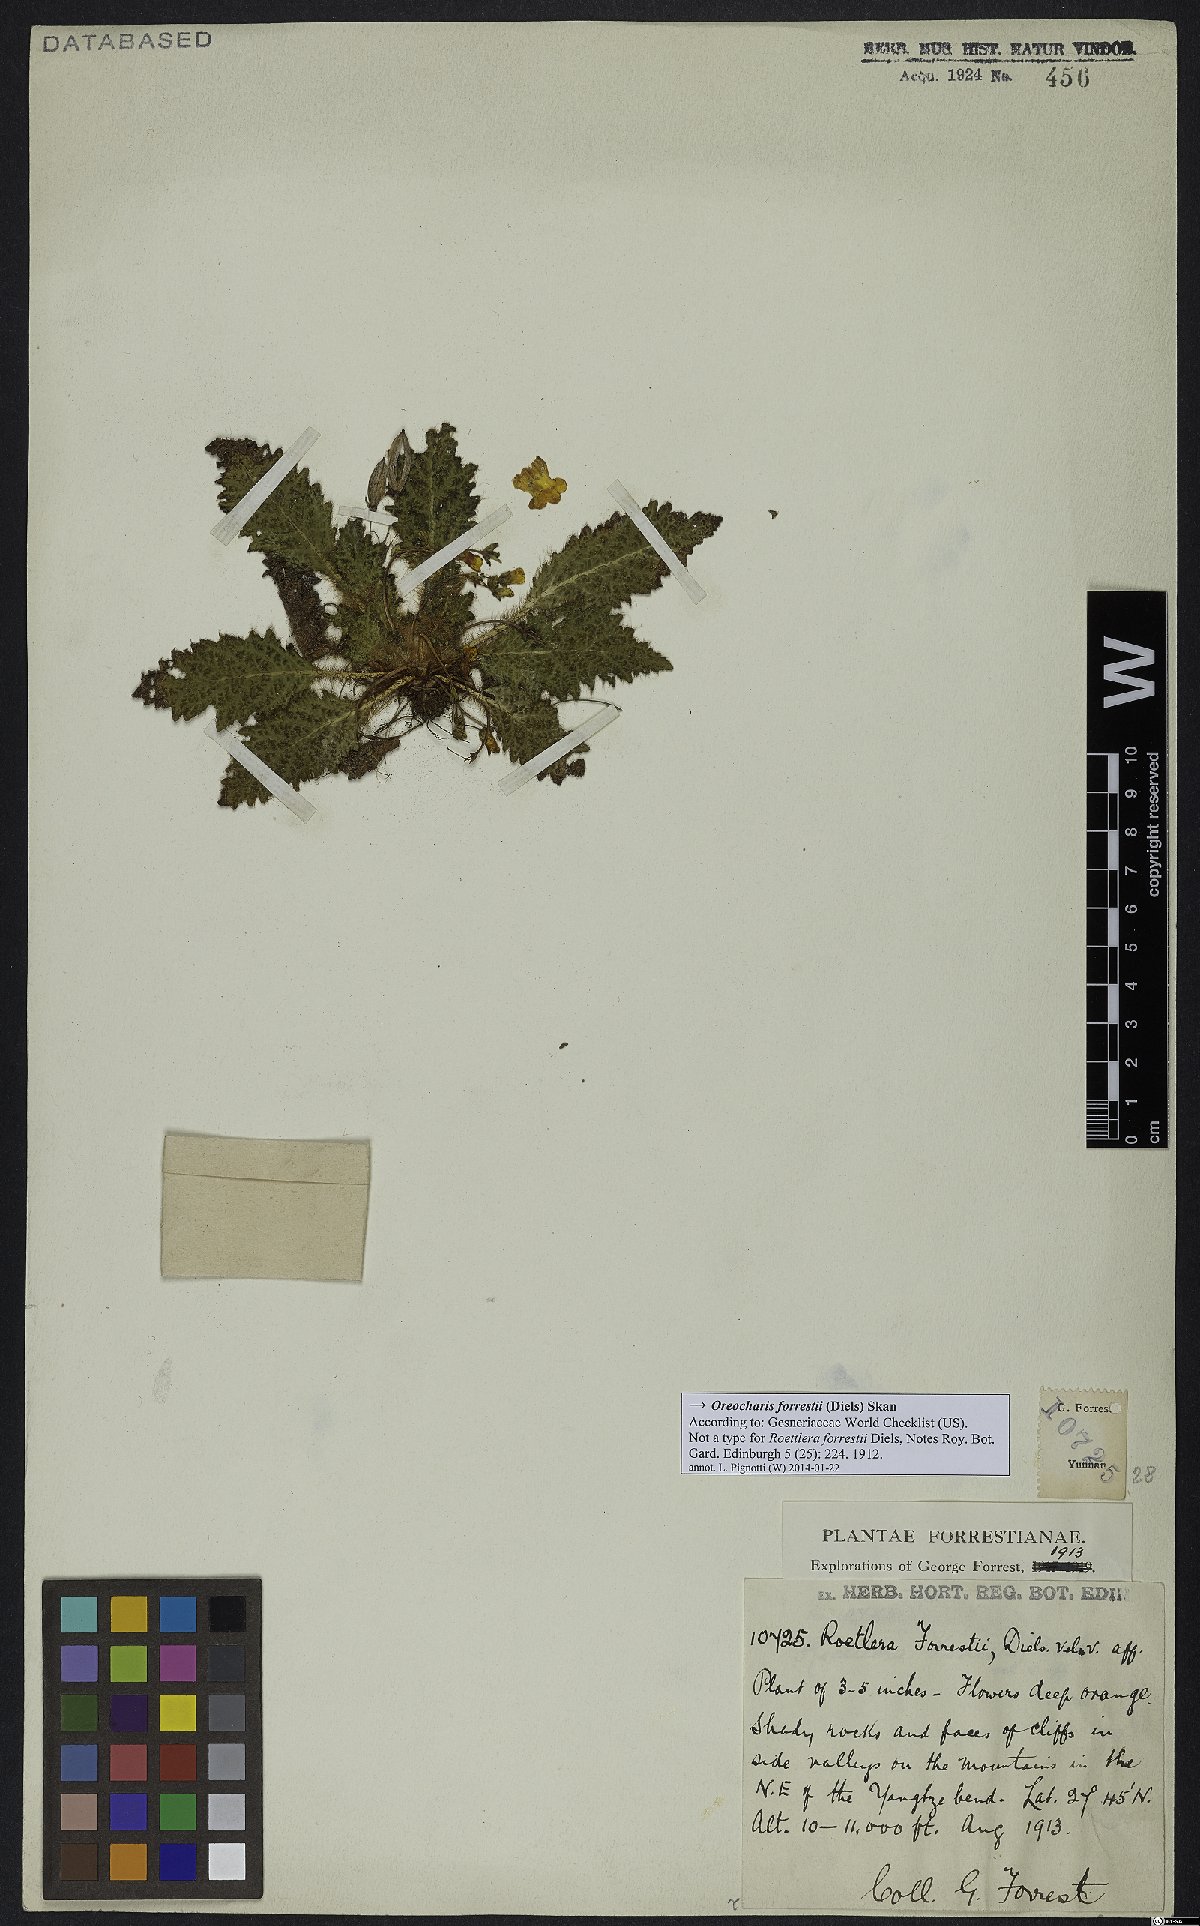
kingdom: Plantae
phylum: Tracheophyta
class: Magnoliopsida
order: Lamiales
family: Gesneriaceae
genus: Oreocharis
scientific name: Oreocharis forrestii
